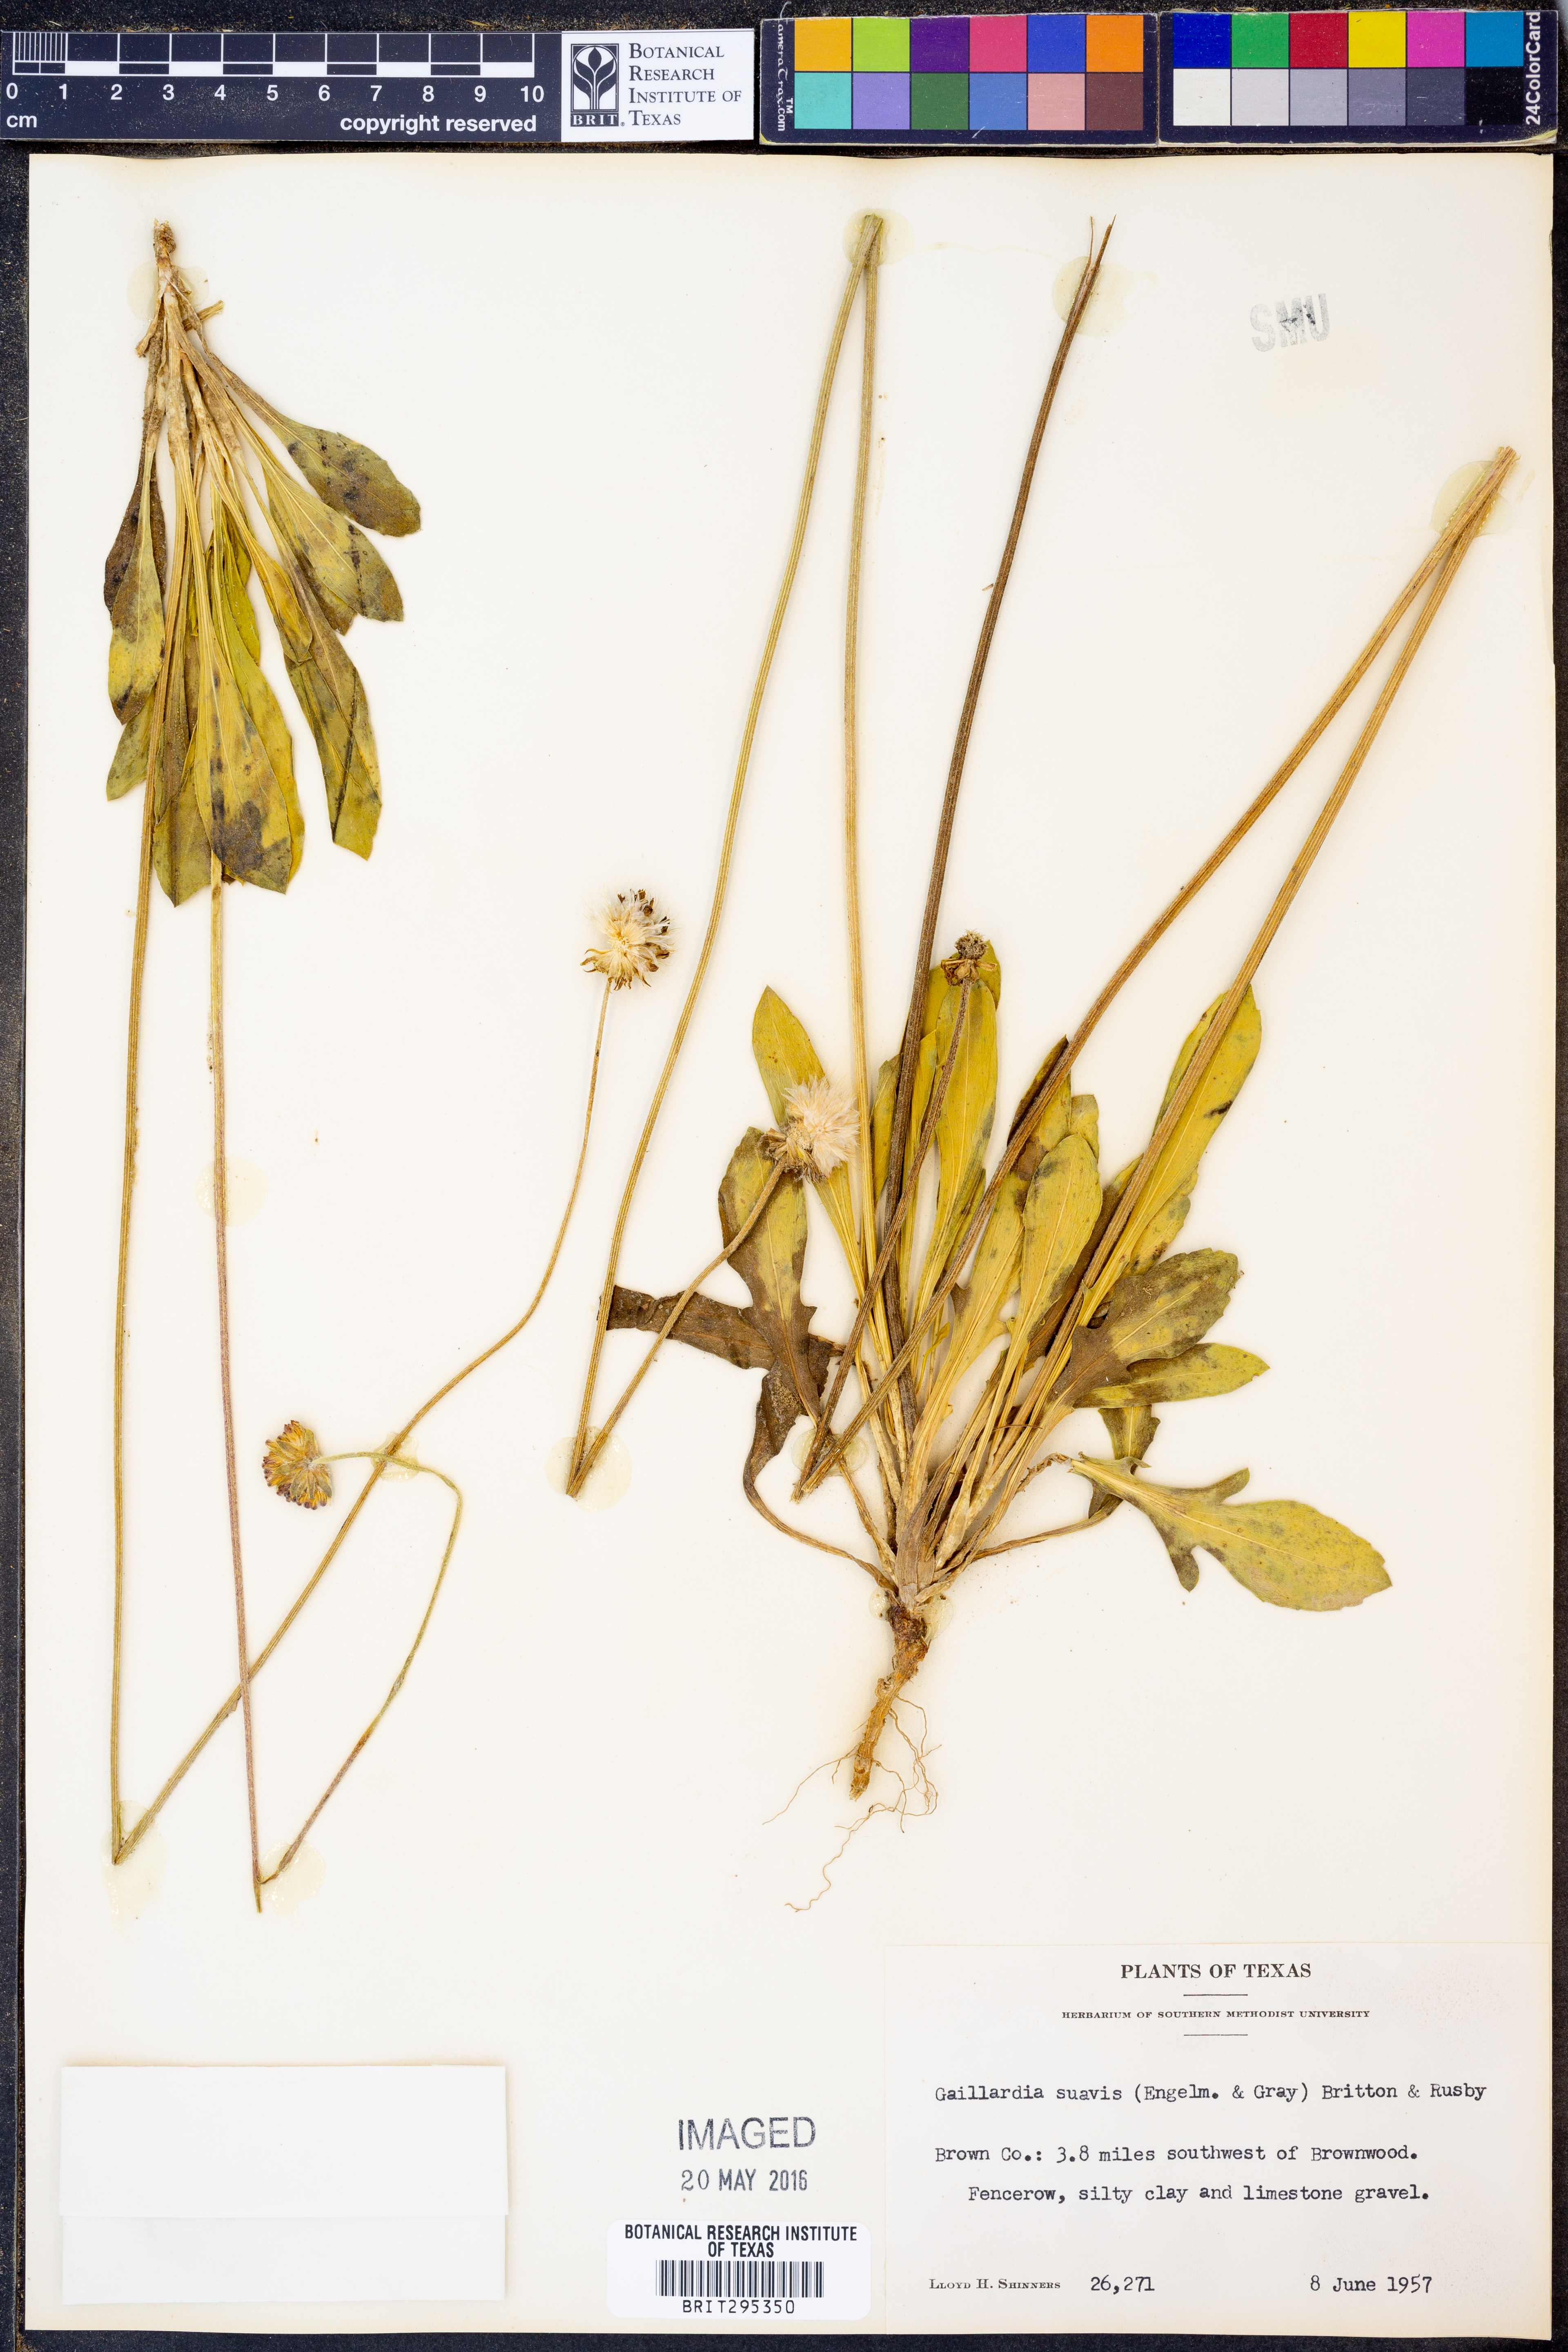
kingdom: Plantae
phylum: Tracheophyta
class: Magnoliopsida
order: Asterales
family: Asteraceae
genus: Gaillardia
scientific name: Gaillardia suavis
